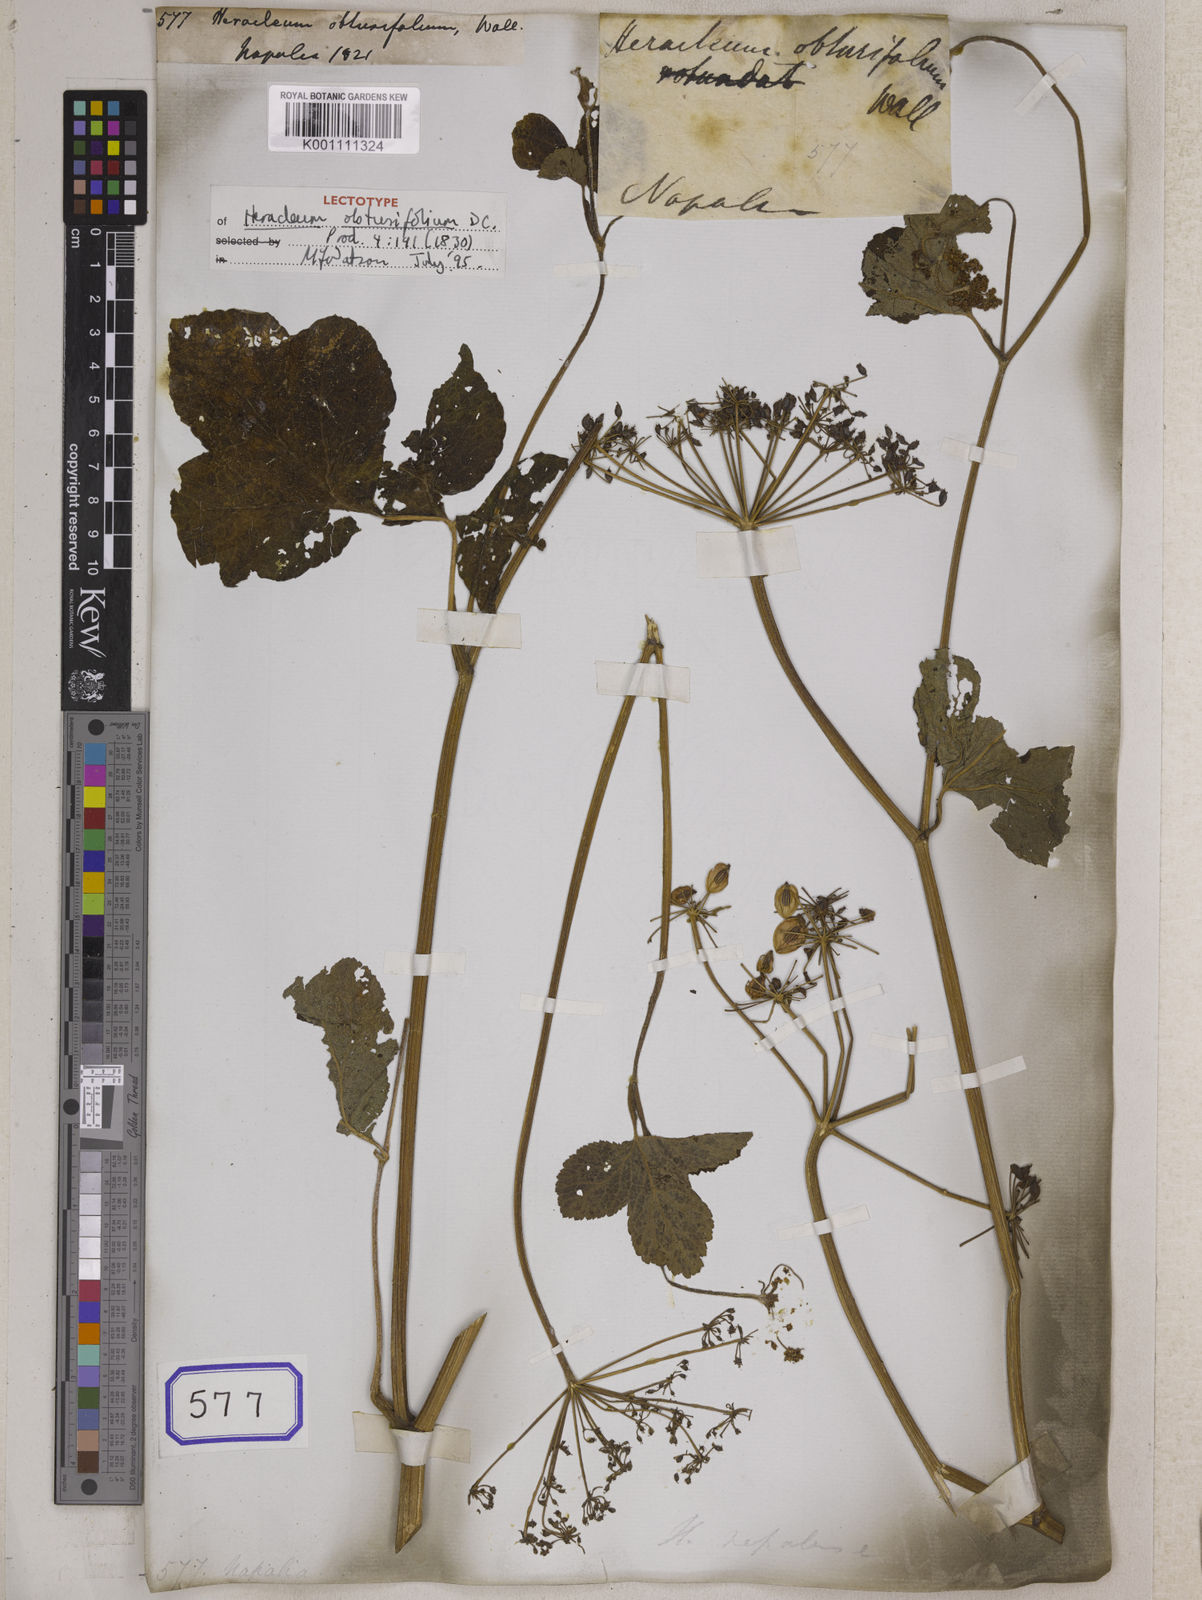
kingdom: Plantae
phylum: Tracheophyta
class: Magnoliopsida
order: Apiales
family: Apiaceae
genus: Heracleum
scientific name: Heracleum
